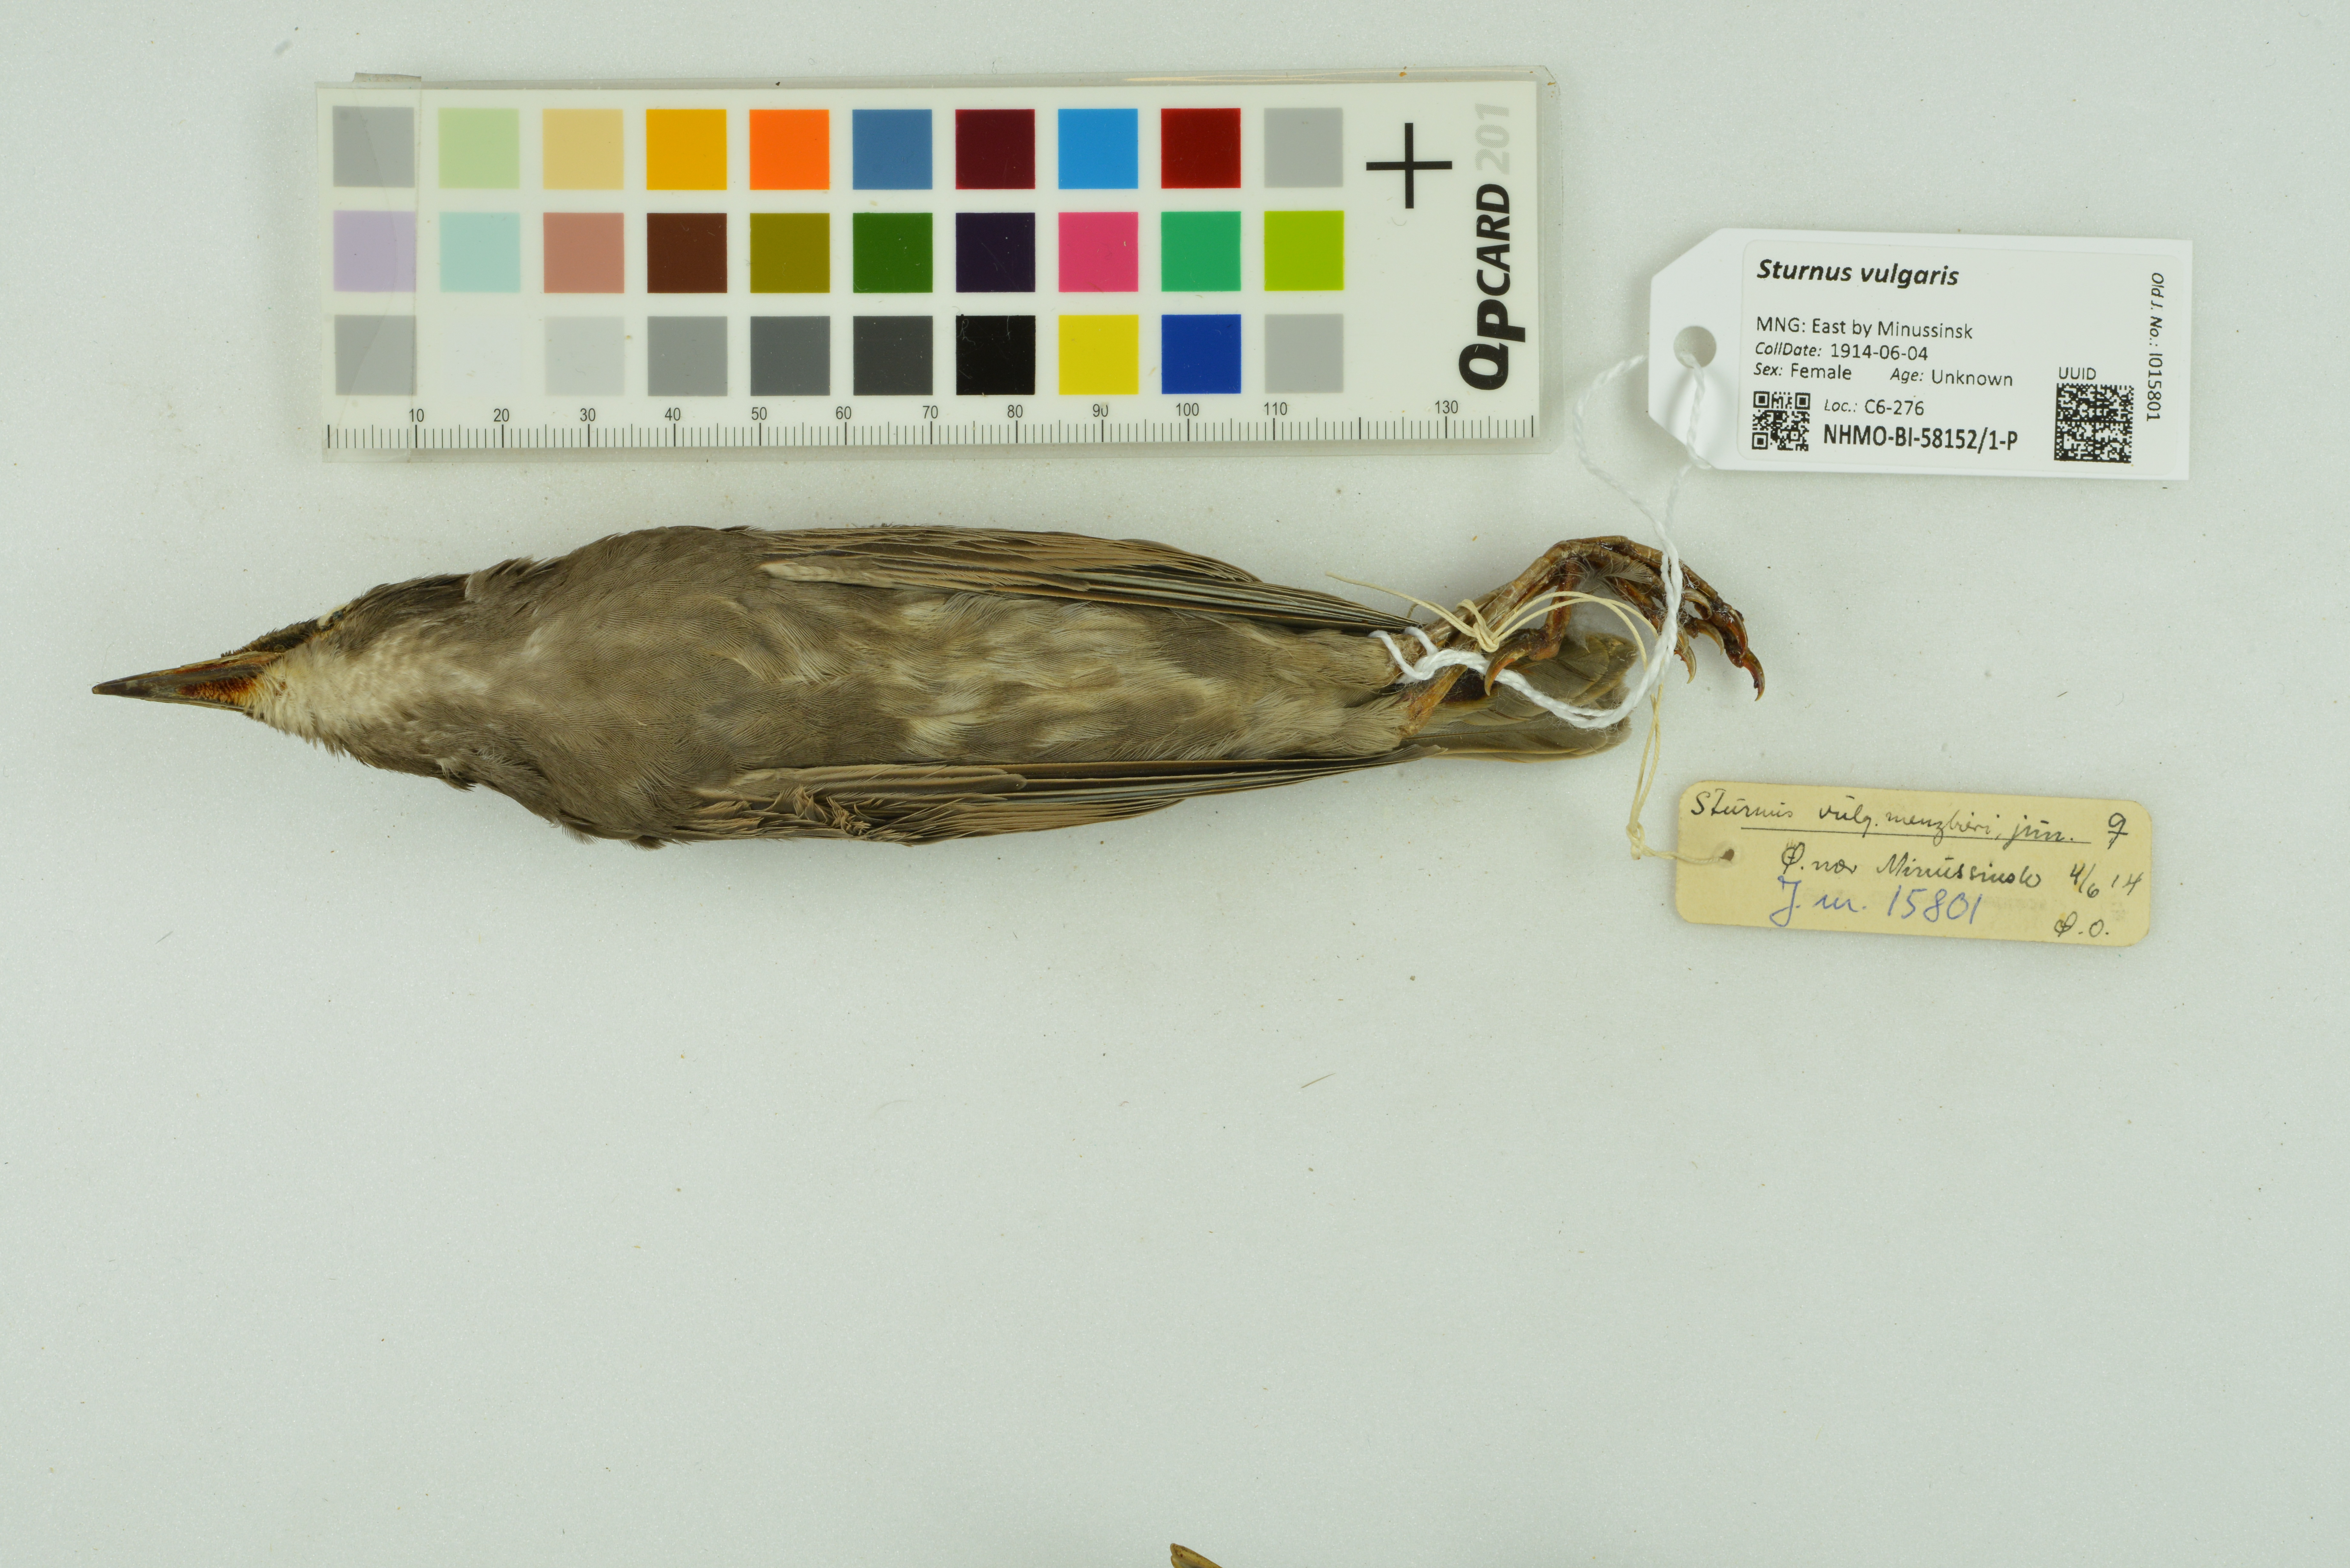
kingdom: Animalia
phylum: Chordata
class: Aves
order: Passeriformes
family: Sturnidae
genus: Sturnus
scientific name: Sturnus vulgaris
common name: Common starling
